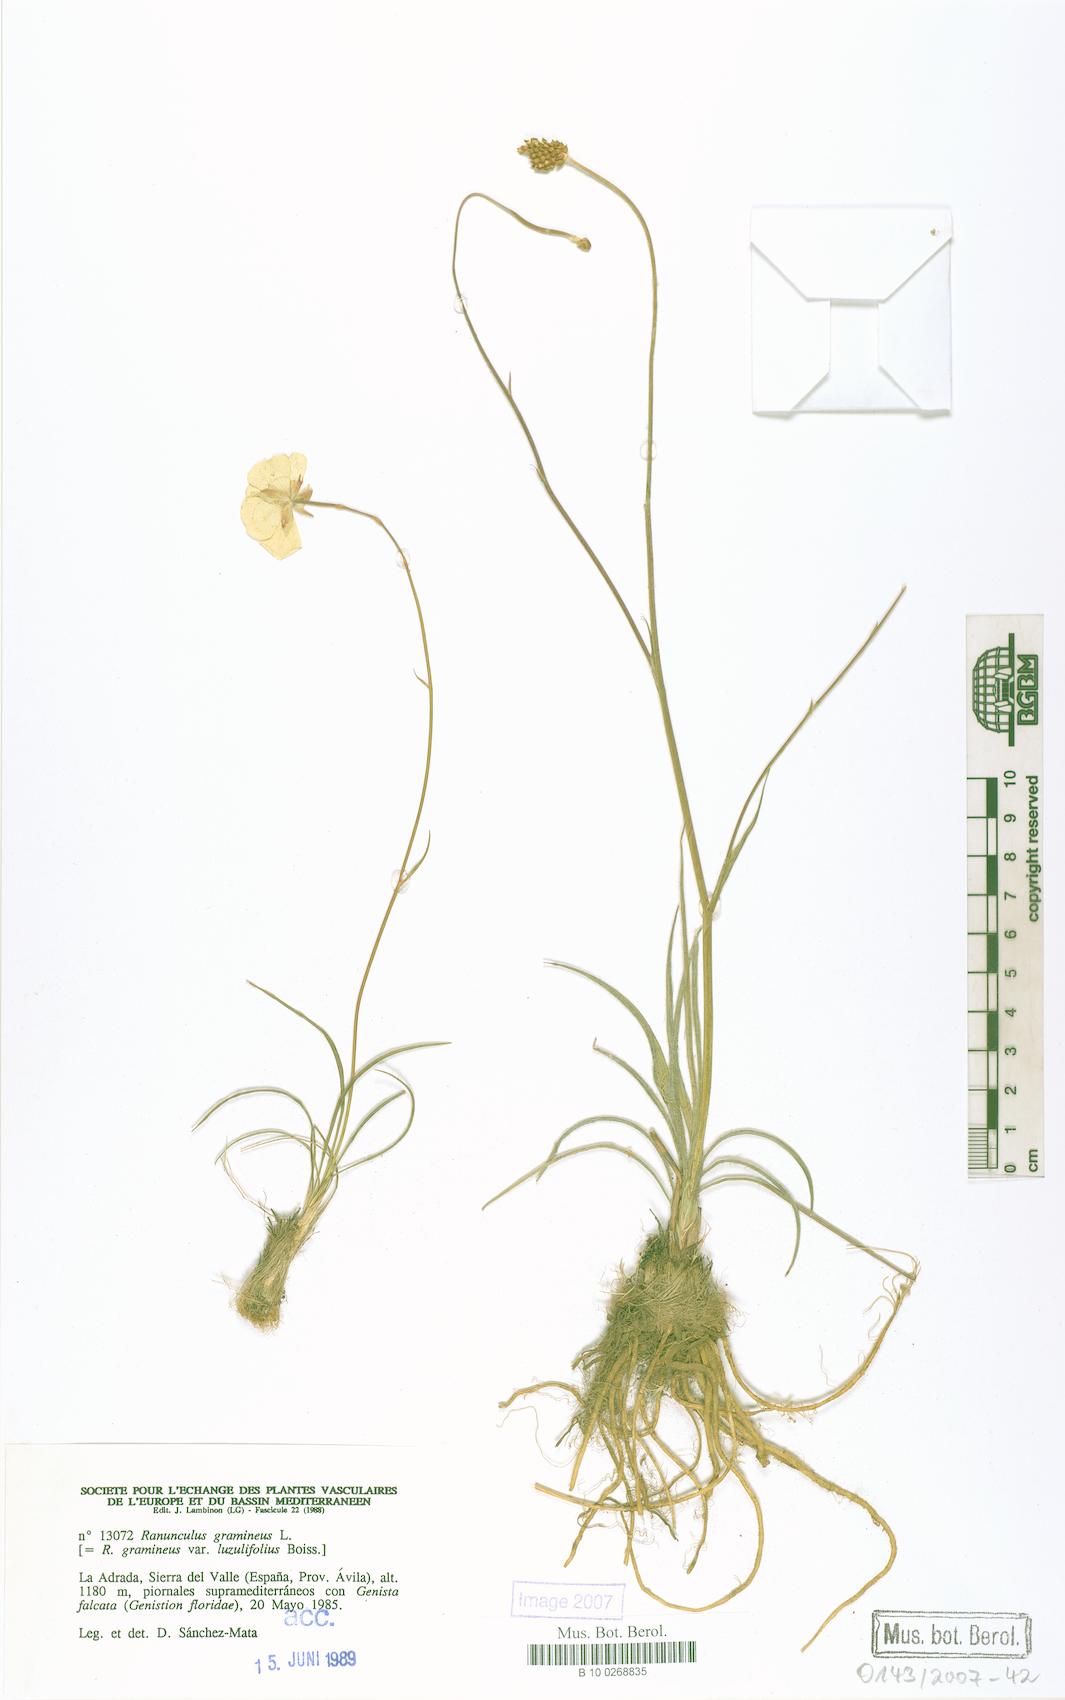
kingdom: Plantae
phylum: Tracheophyta
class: Magnoliopsida
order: Ranunculales
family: Ranunculaceae
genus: Ranunculus
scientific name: Ranunculus gramineus
